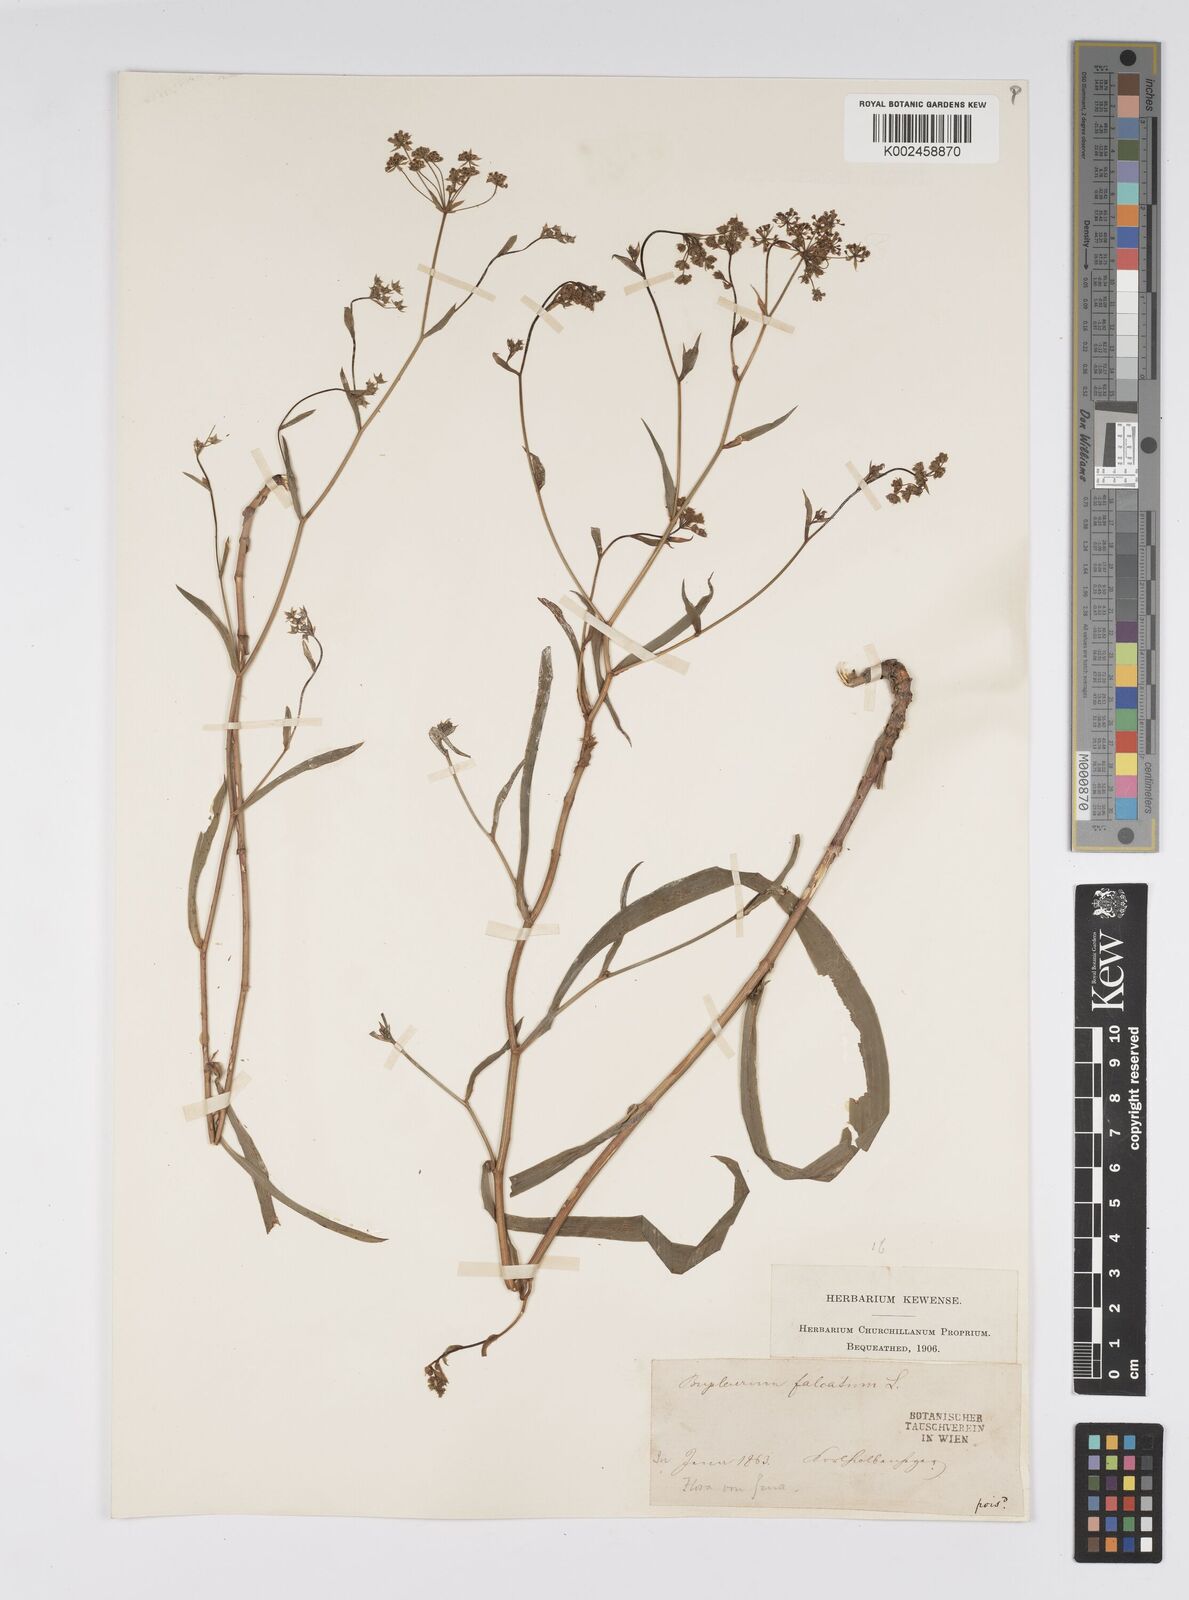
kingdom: Plantae
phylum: Tracheophyta
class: Magnoliopsida
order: Apiales
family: Apiaceae
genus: Bupleurum
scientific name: Bupleurum falcatum
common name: Sickle-leaved hare's-ear
